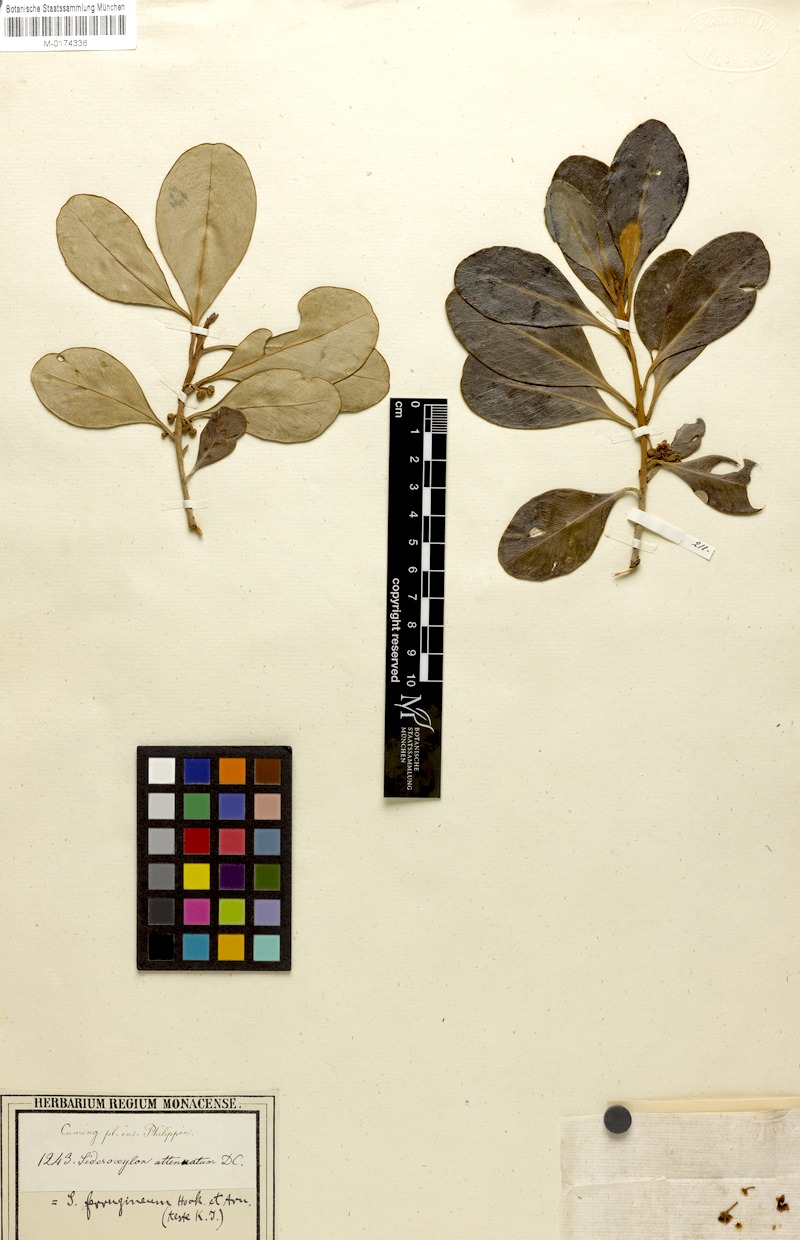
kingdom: Plantae
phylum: Tracheophyta
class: Magnoliopsida
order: Ericales
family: Sapotaceae
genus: Planchonella
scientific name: Planchonella obovata
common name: Black-ash
